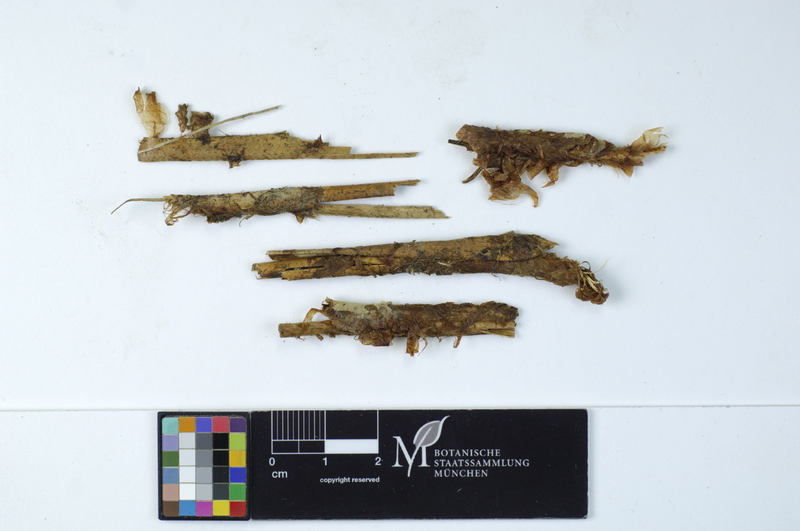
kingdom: Fungi
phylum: Basidiomycota
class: Agaricomycetes
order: Atheliales
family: Atheliaceae
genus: Amphinema
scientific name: Amphinema byssoides
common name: Cratered duster
